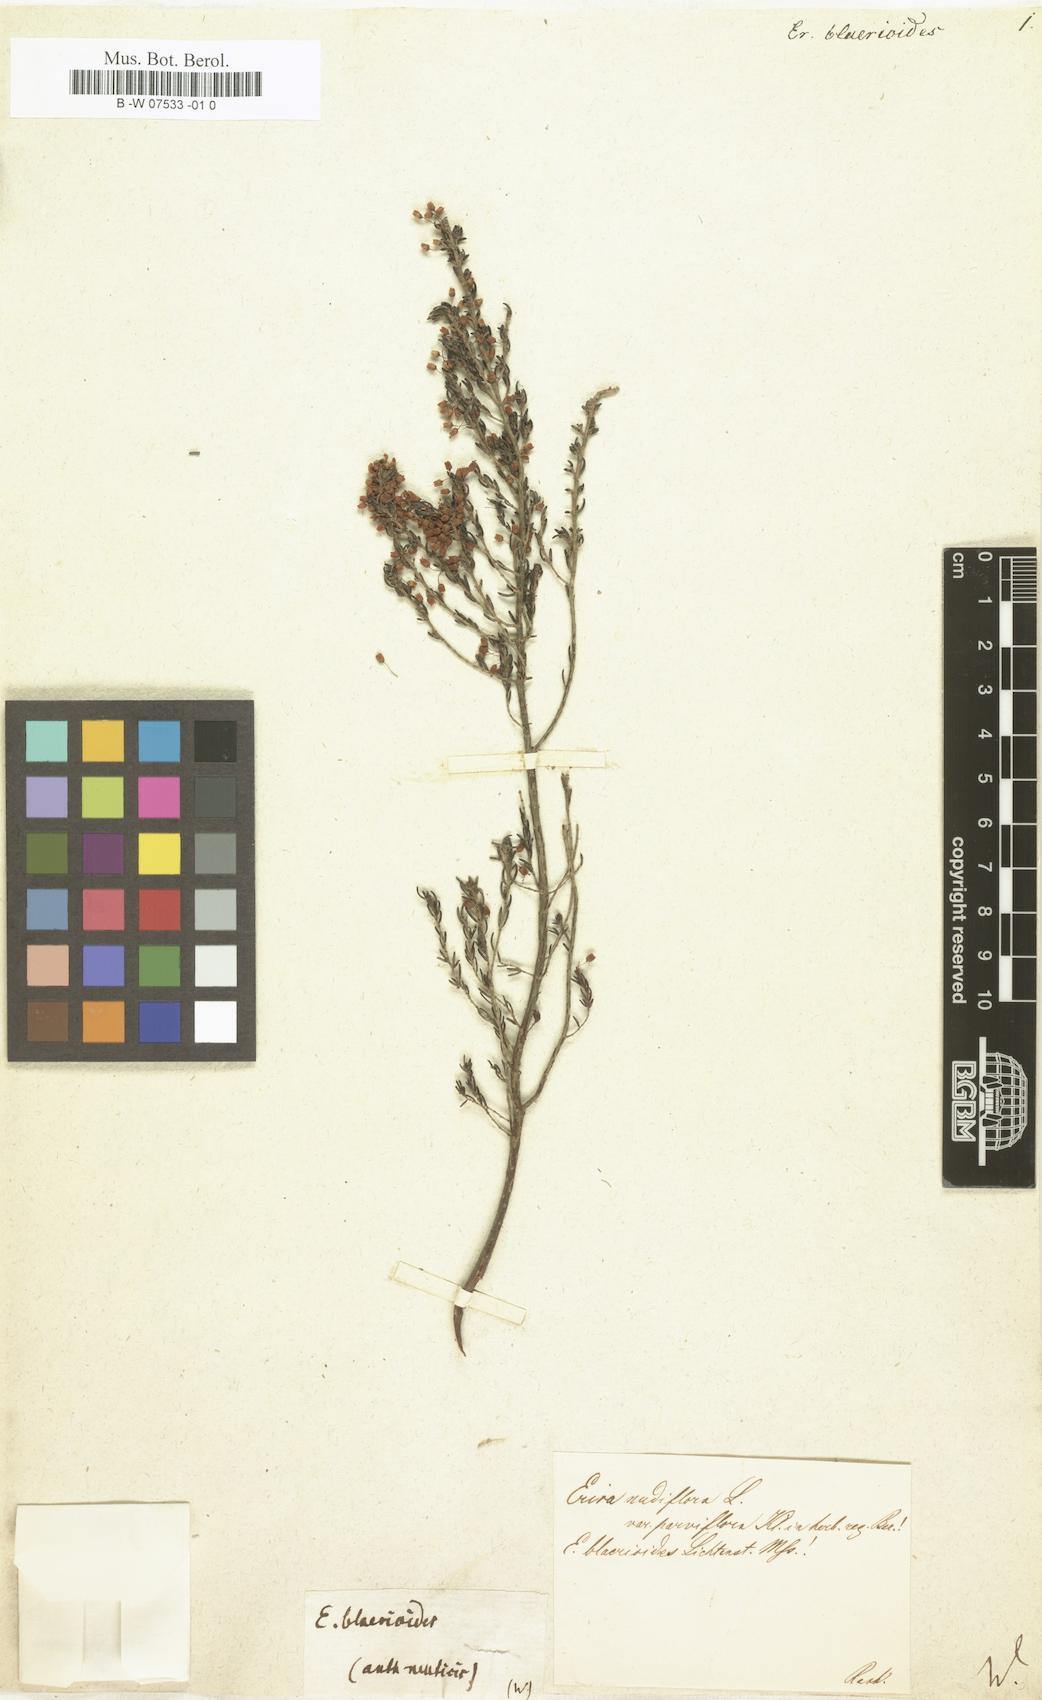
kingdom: Plantae
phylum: Tracheophyta
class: Magnoliopsida
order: Ericales
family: Ericaceae
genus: Erica
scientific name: Erica blaerioides
